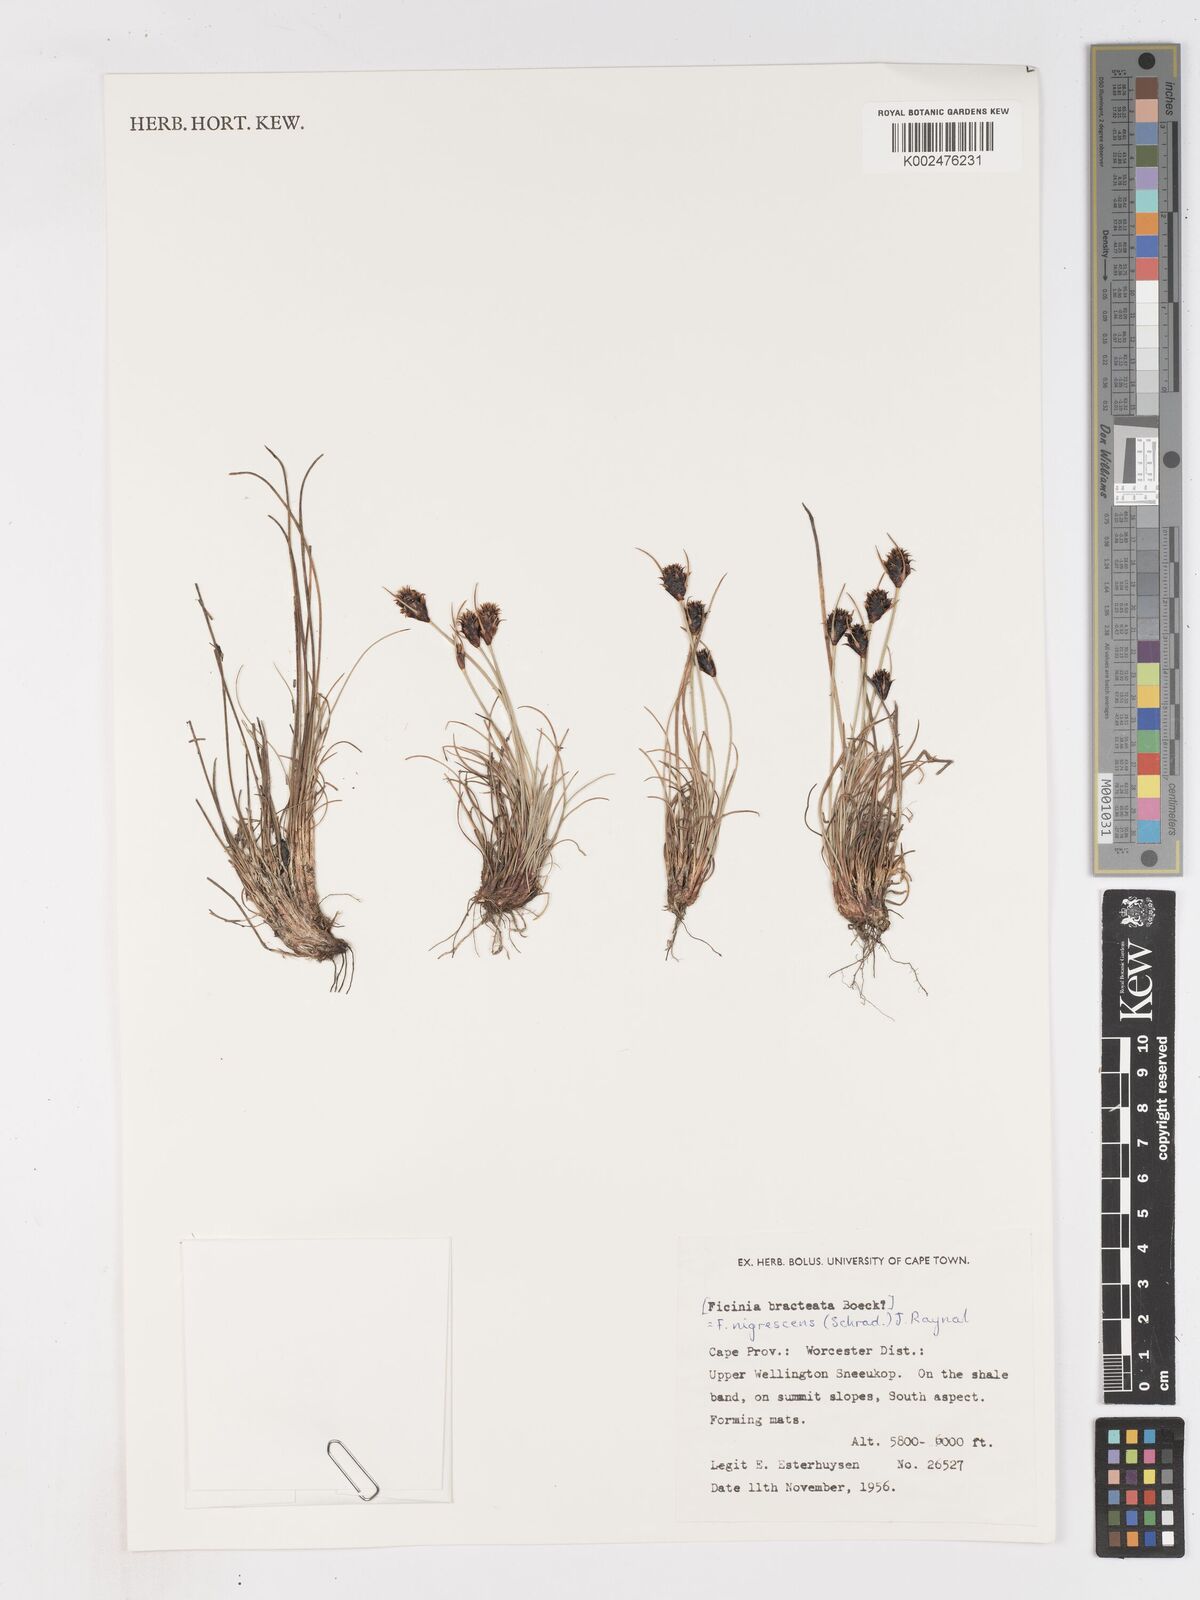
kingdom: Plantae
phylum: Tracheophyta
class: Liliopsida
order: Poales
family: Cyperaceae
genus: Ficinia
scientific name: Ficinia nigrescens
